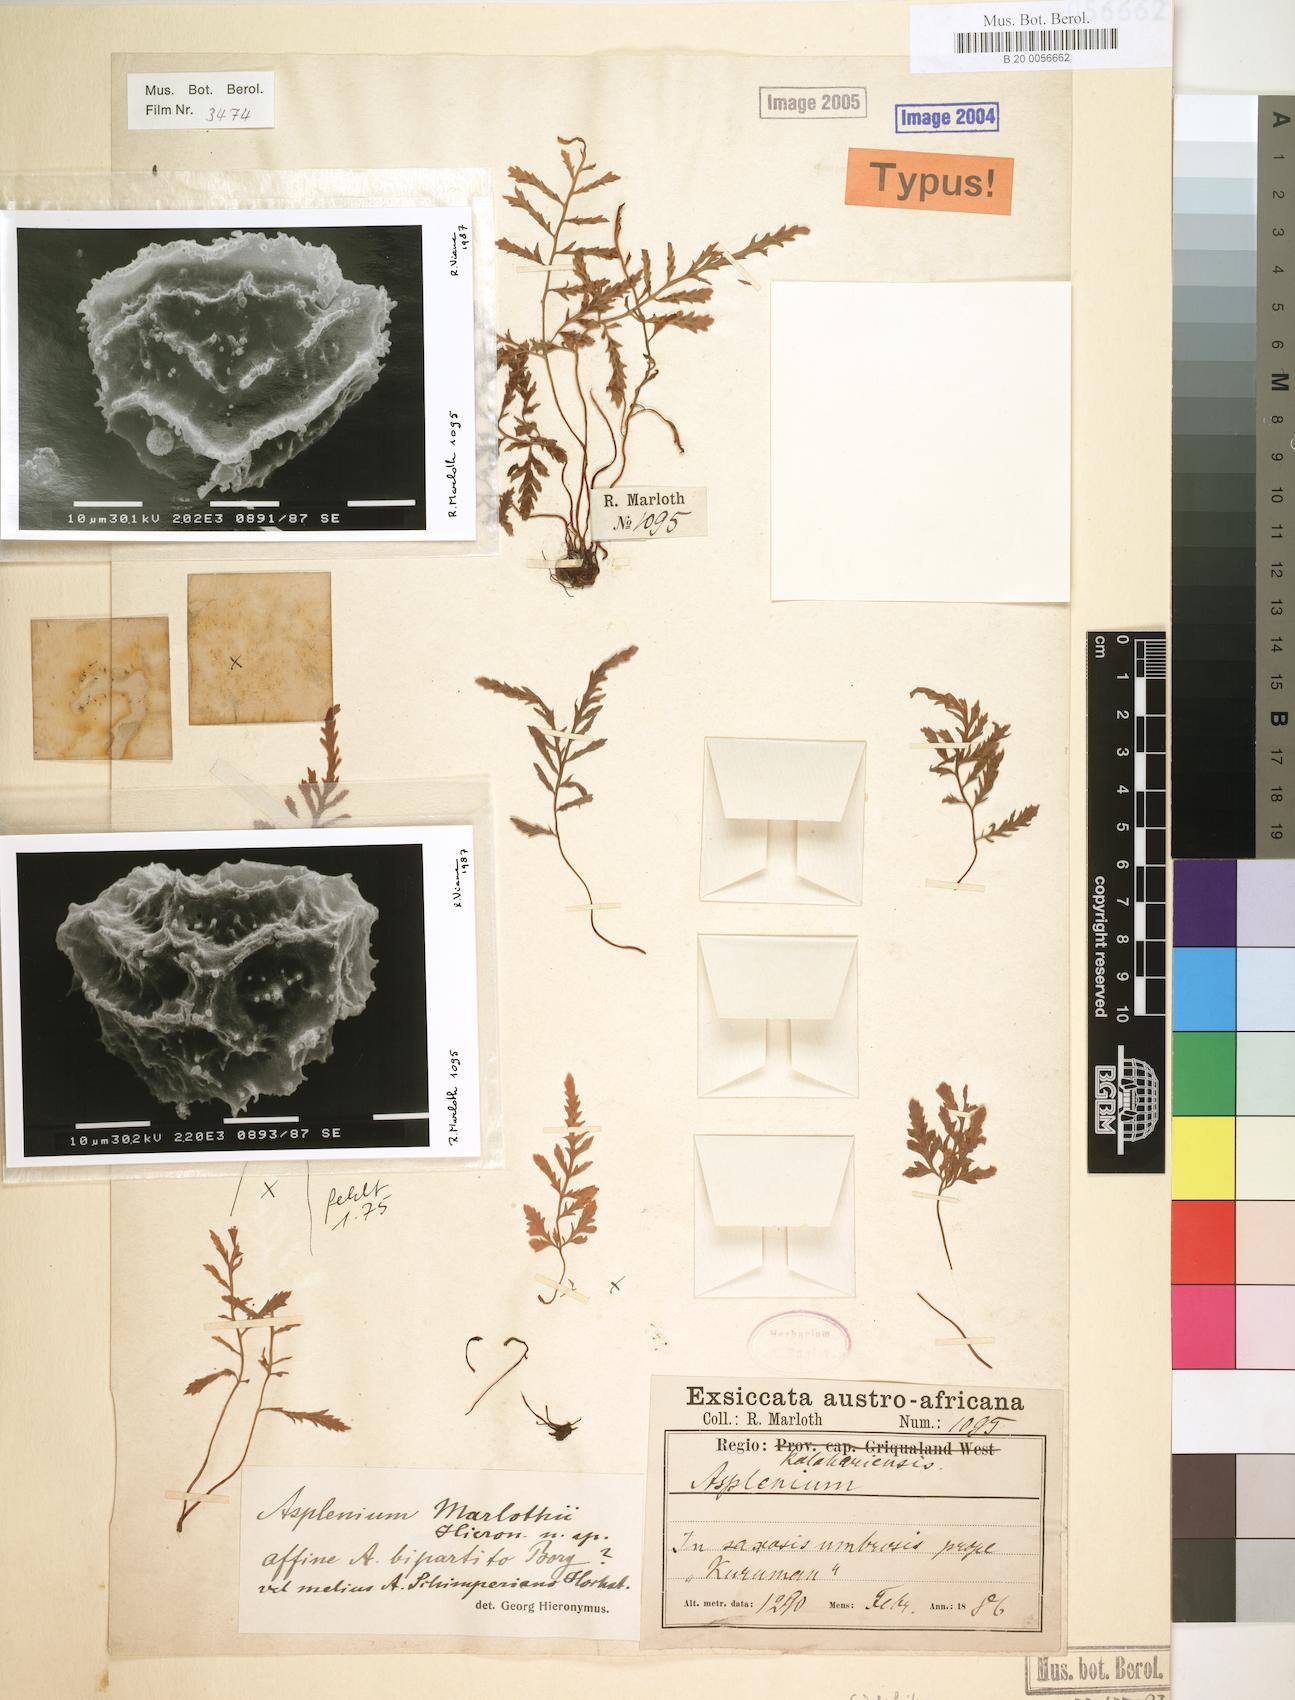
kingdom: Plantae
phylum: Tracheophyta
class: Polypodiopsida
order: Polypodiales
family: Aspleniaceae
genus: Asplenium
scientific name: Asplenium adiantum-nigrum
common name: Black spleenwort
